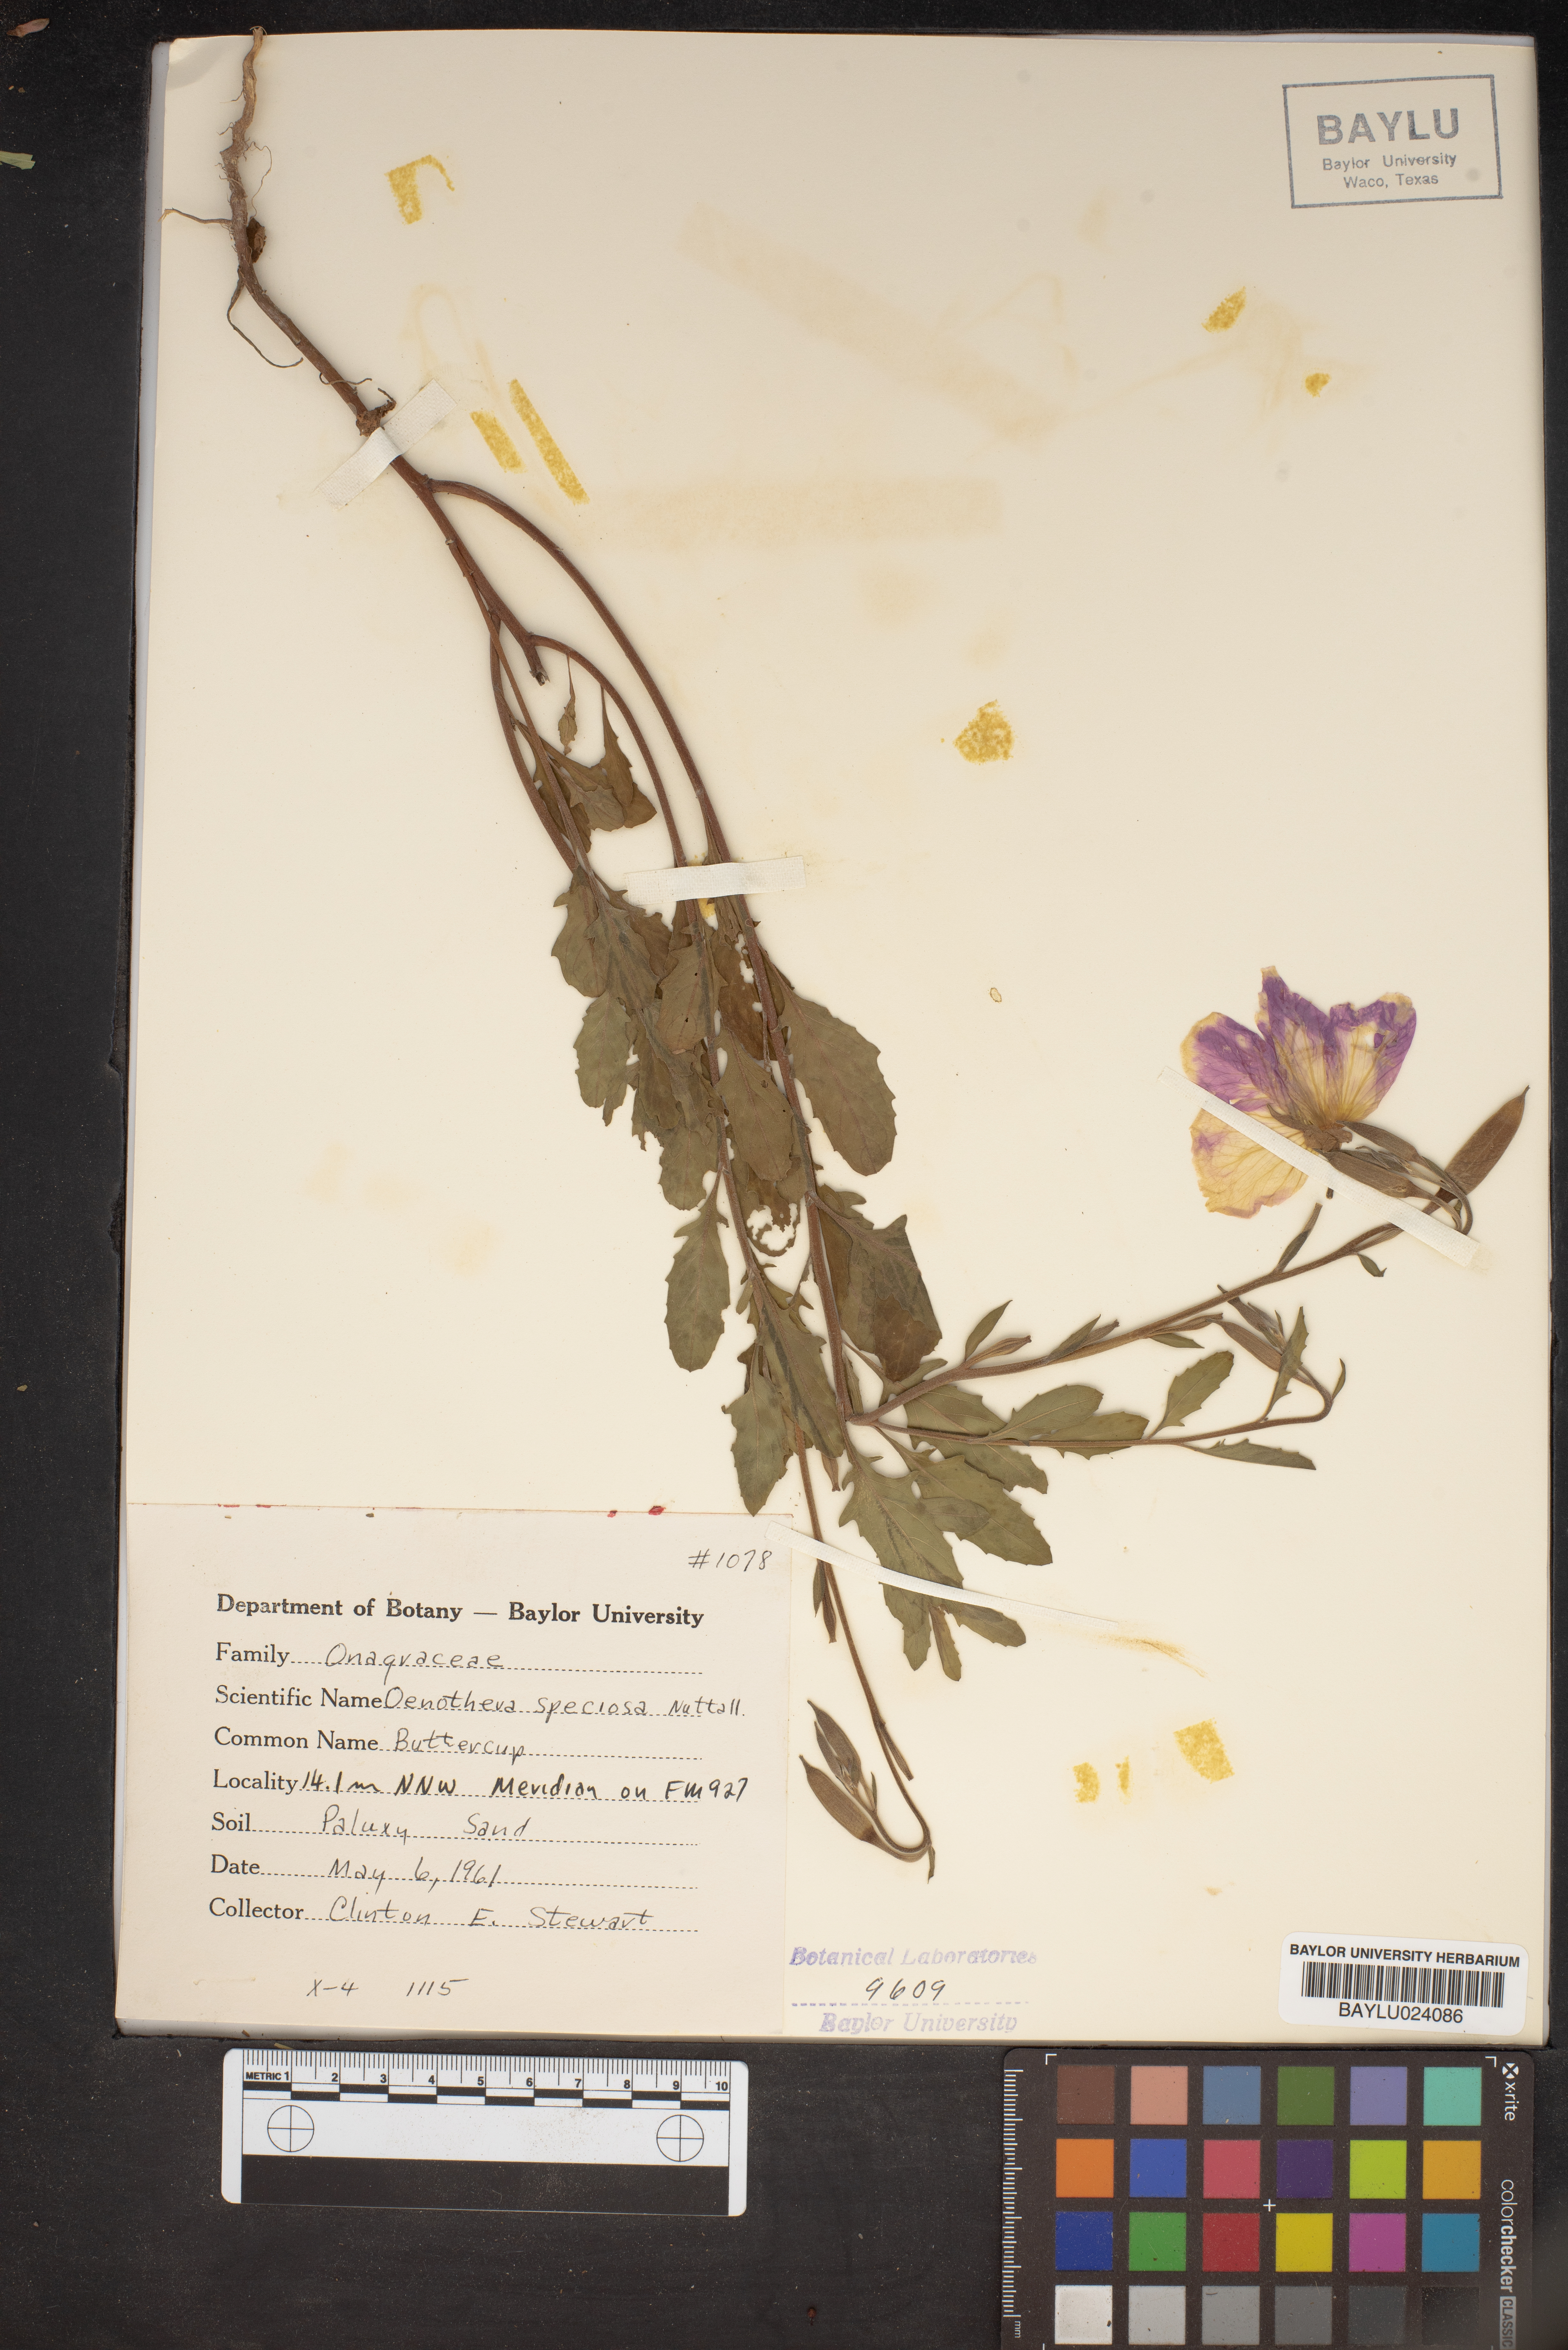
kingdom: Plantae
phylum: Tracheophyta
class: Magnoliopsida
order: Myrtales
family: Onagraceae
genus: Oenothera
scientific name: Oenothera speciosa
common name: White evening-primrose
